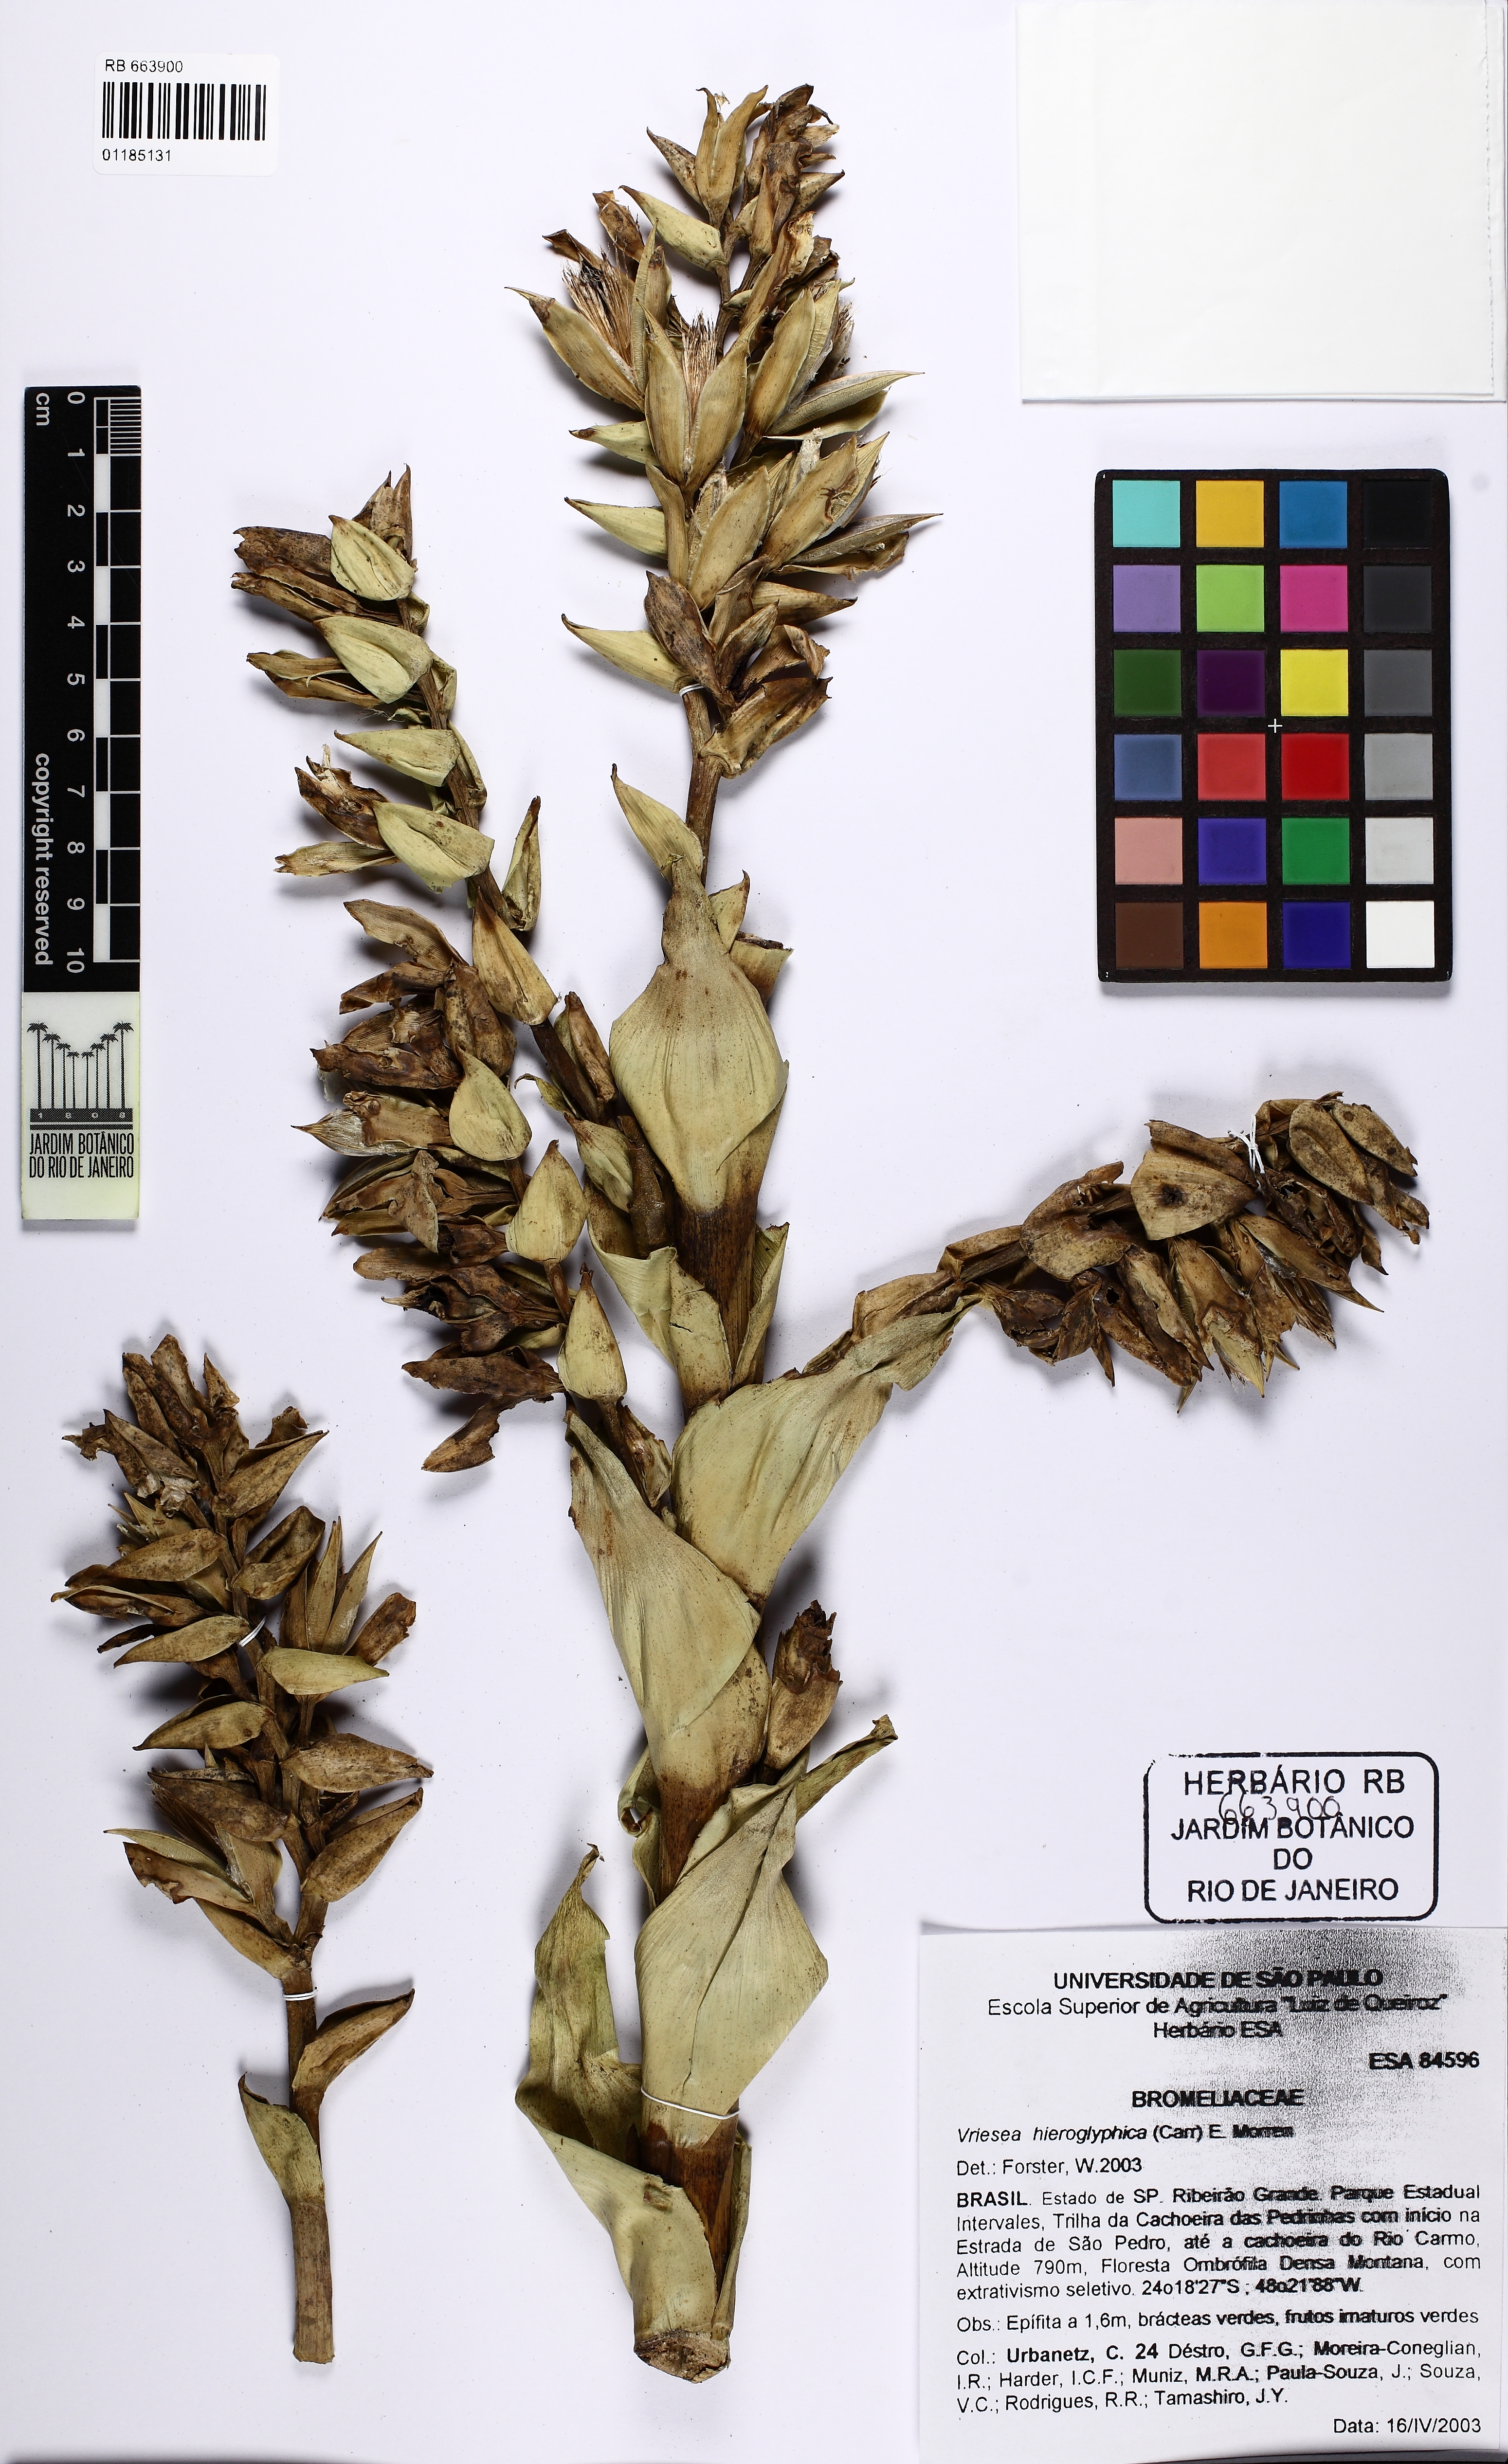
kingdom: Plantae
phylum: Tracheophyta
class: Liliopsida
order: Poales
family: Bromeliaceae
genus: Vriesea
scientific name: Vriesea hieroglyphica
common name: Bromeliad-king
